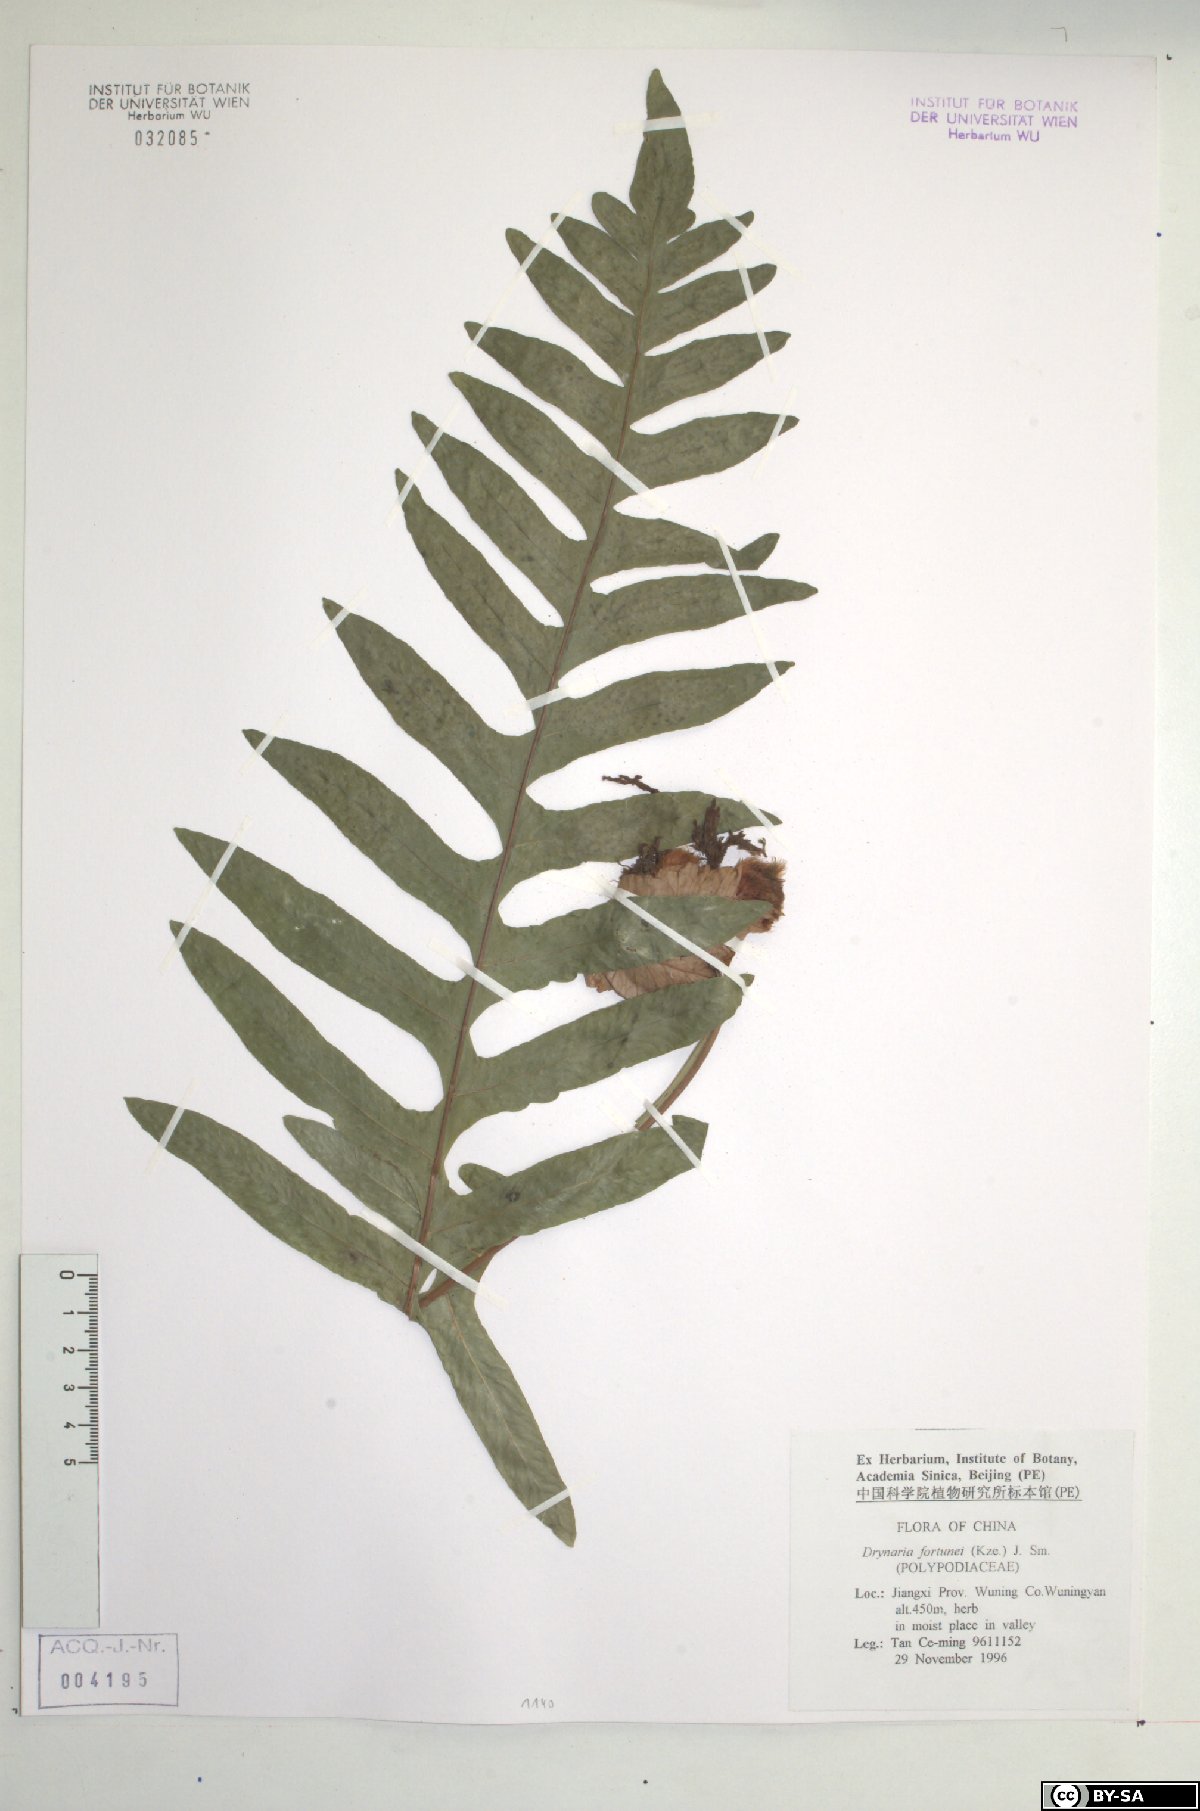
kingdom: Plantae
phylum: Tracheophyta
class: Polypodiopsida
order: Polypodiales
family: Polypodiaceae
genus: Drynaria
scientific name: Drynaria roosii
